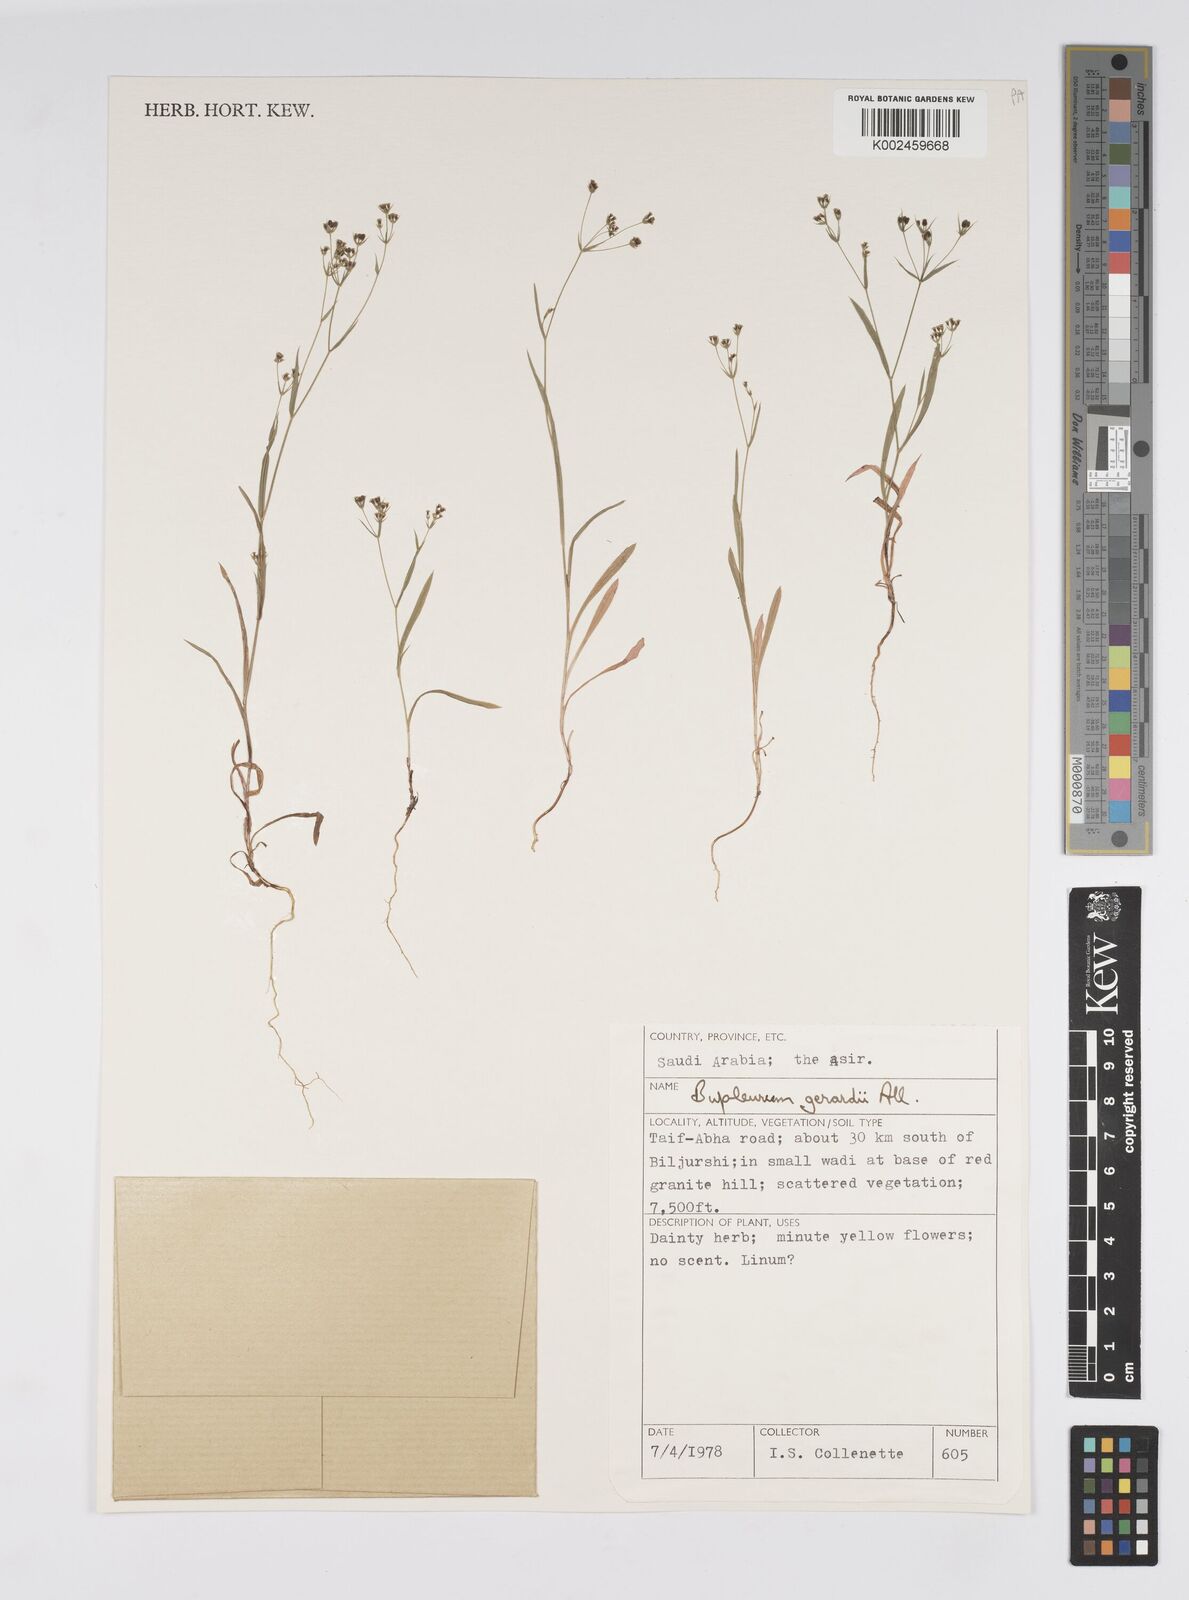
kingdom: Plantae
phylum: Tracheophyta
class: Magnoliopsida
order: Apiales
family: Apiaceae
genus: Bupleurum
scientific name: Bupleurum gerardi
